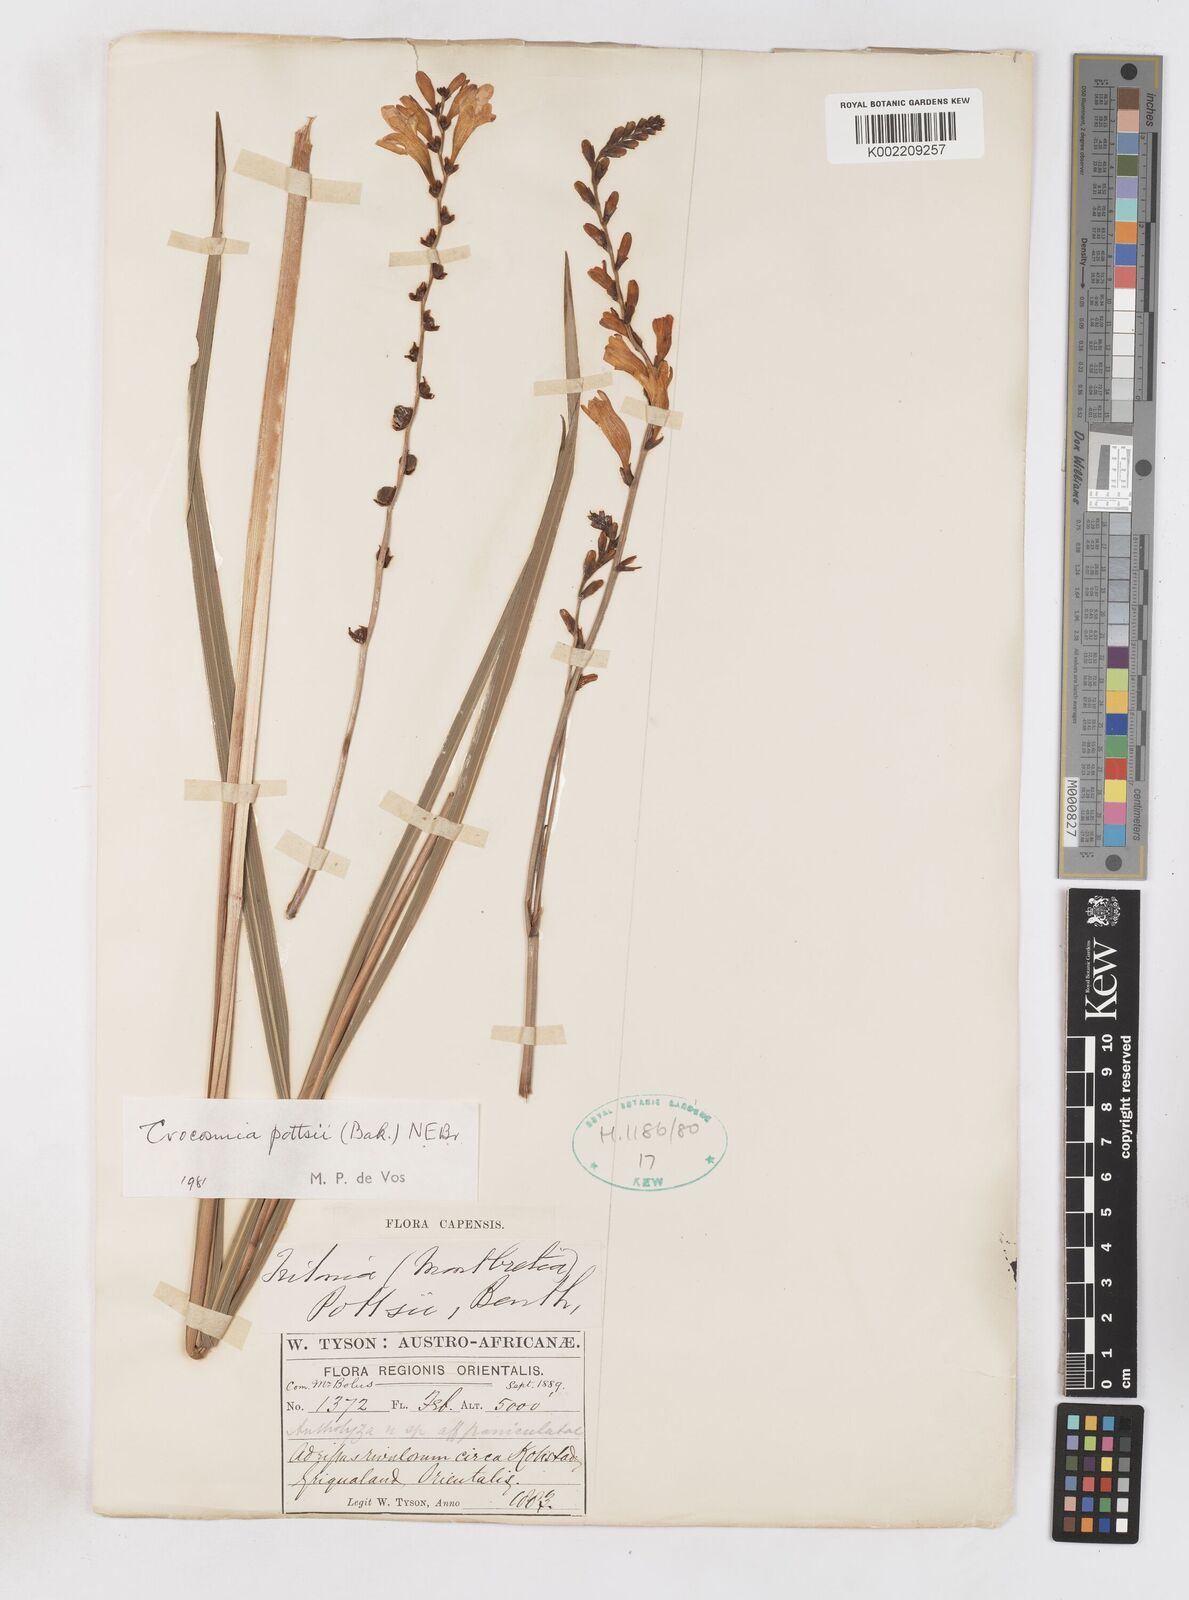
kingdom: Plantae
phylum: Tracheophyta
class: Liliopsida
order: Asparagales
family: Iridaceae
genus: Crocosmia
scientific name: Crocosmia pottsii
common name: Pott's montbretia
